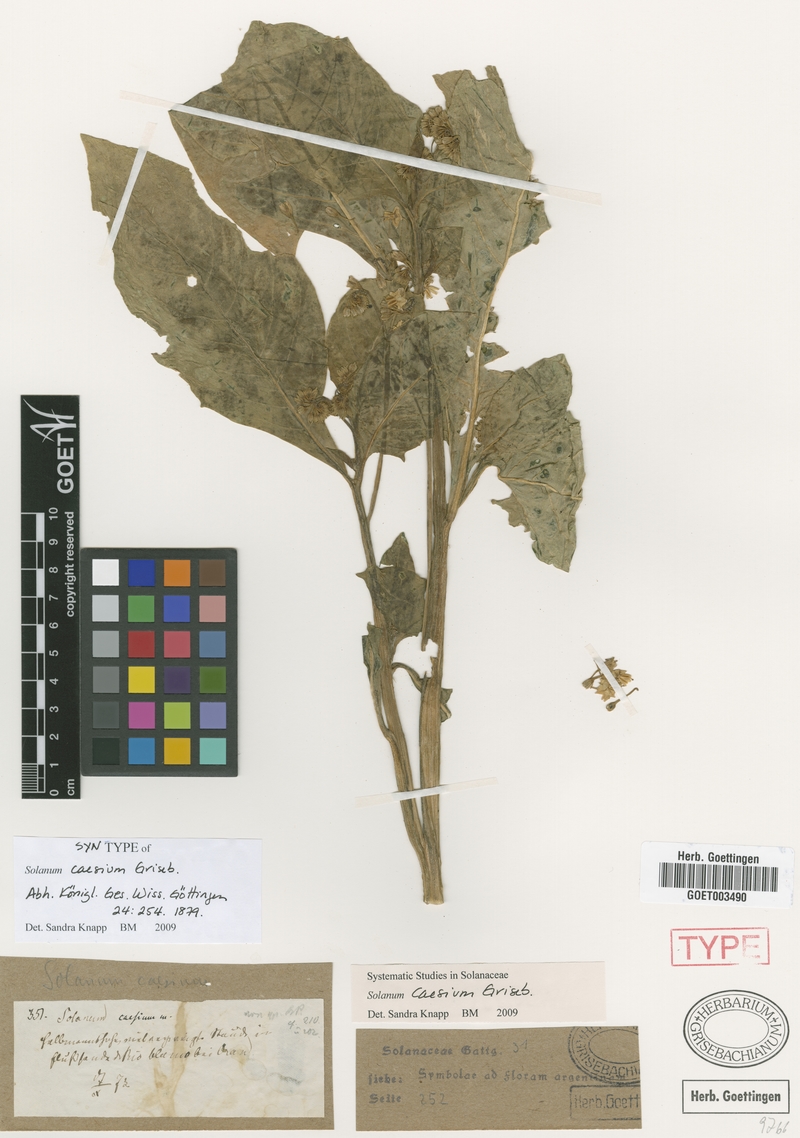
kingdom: Plantae
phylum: Tracheophyta
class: Magnoliopsida
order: Solanales
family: Solanaceae
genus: Solanum
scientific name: Solanum caesium
